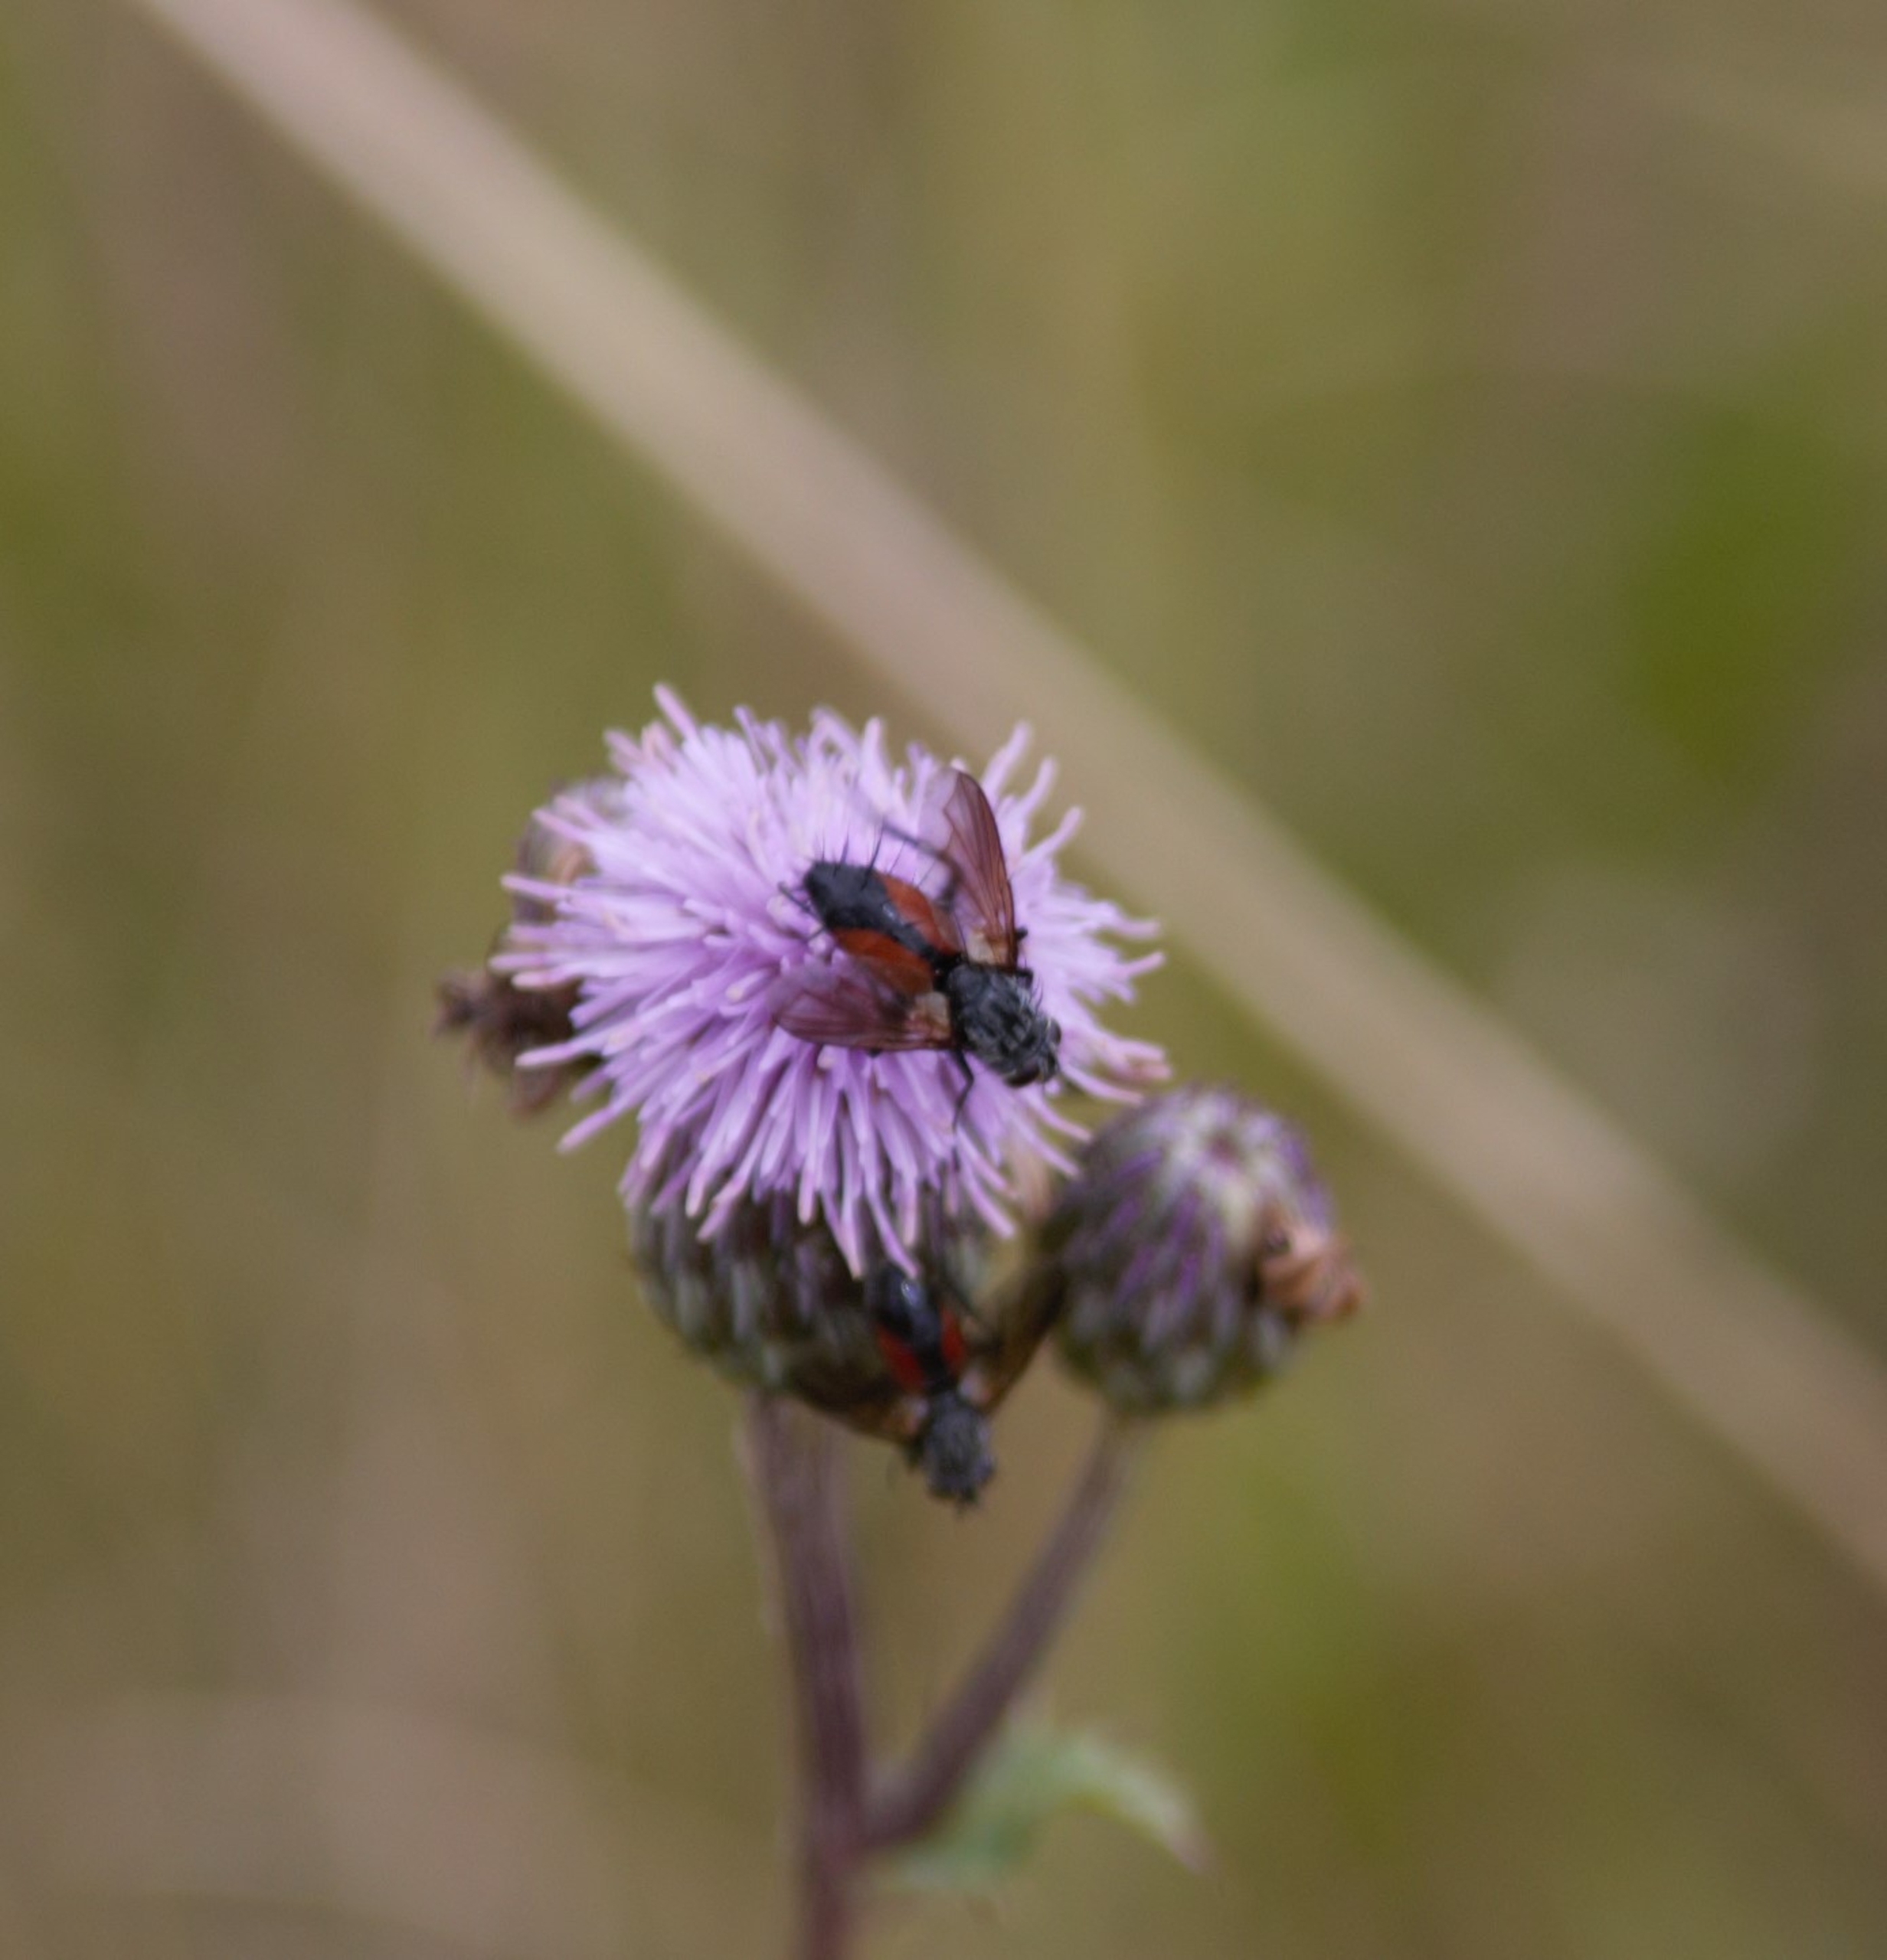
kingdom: Animalia
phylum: Arthropoda
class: Insecta
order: Diptera
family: Tachinidae
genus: Eriothrix
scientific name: Eriothrix rufomaculatus
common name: Rød snylteflue
